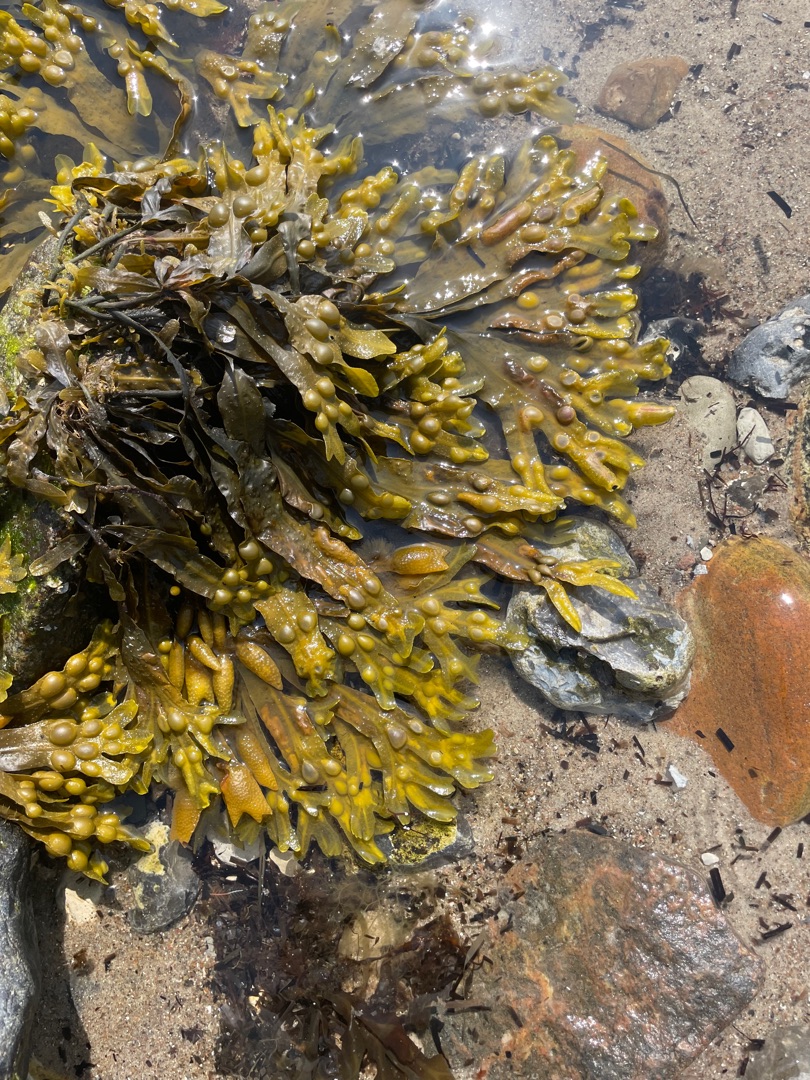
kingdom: Chromista
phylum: Ochrophyta
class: Phaeophyceae
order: Fucales
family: Fucaceae
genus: Fucus
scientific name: Fucus vesiculosus
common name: Blæretang
